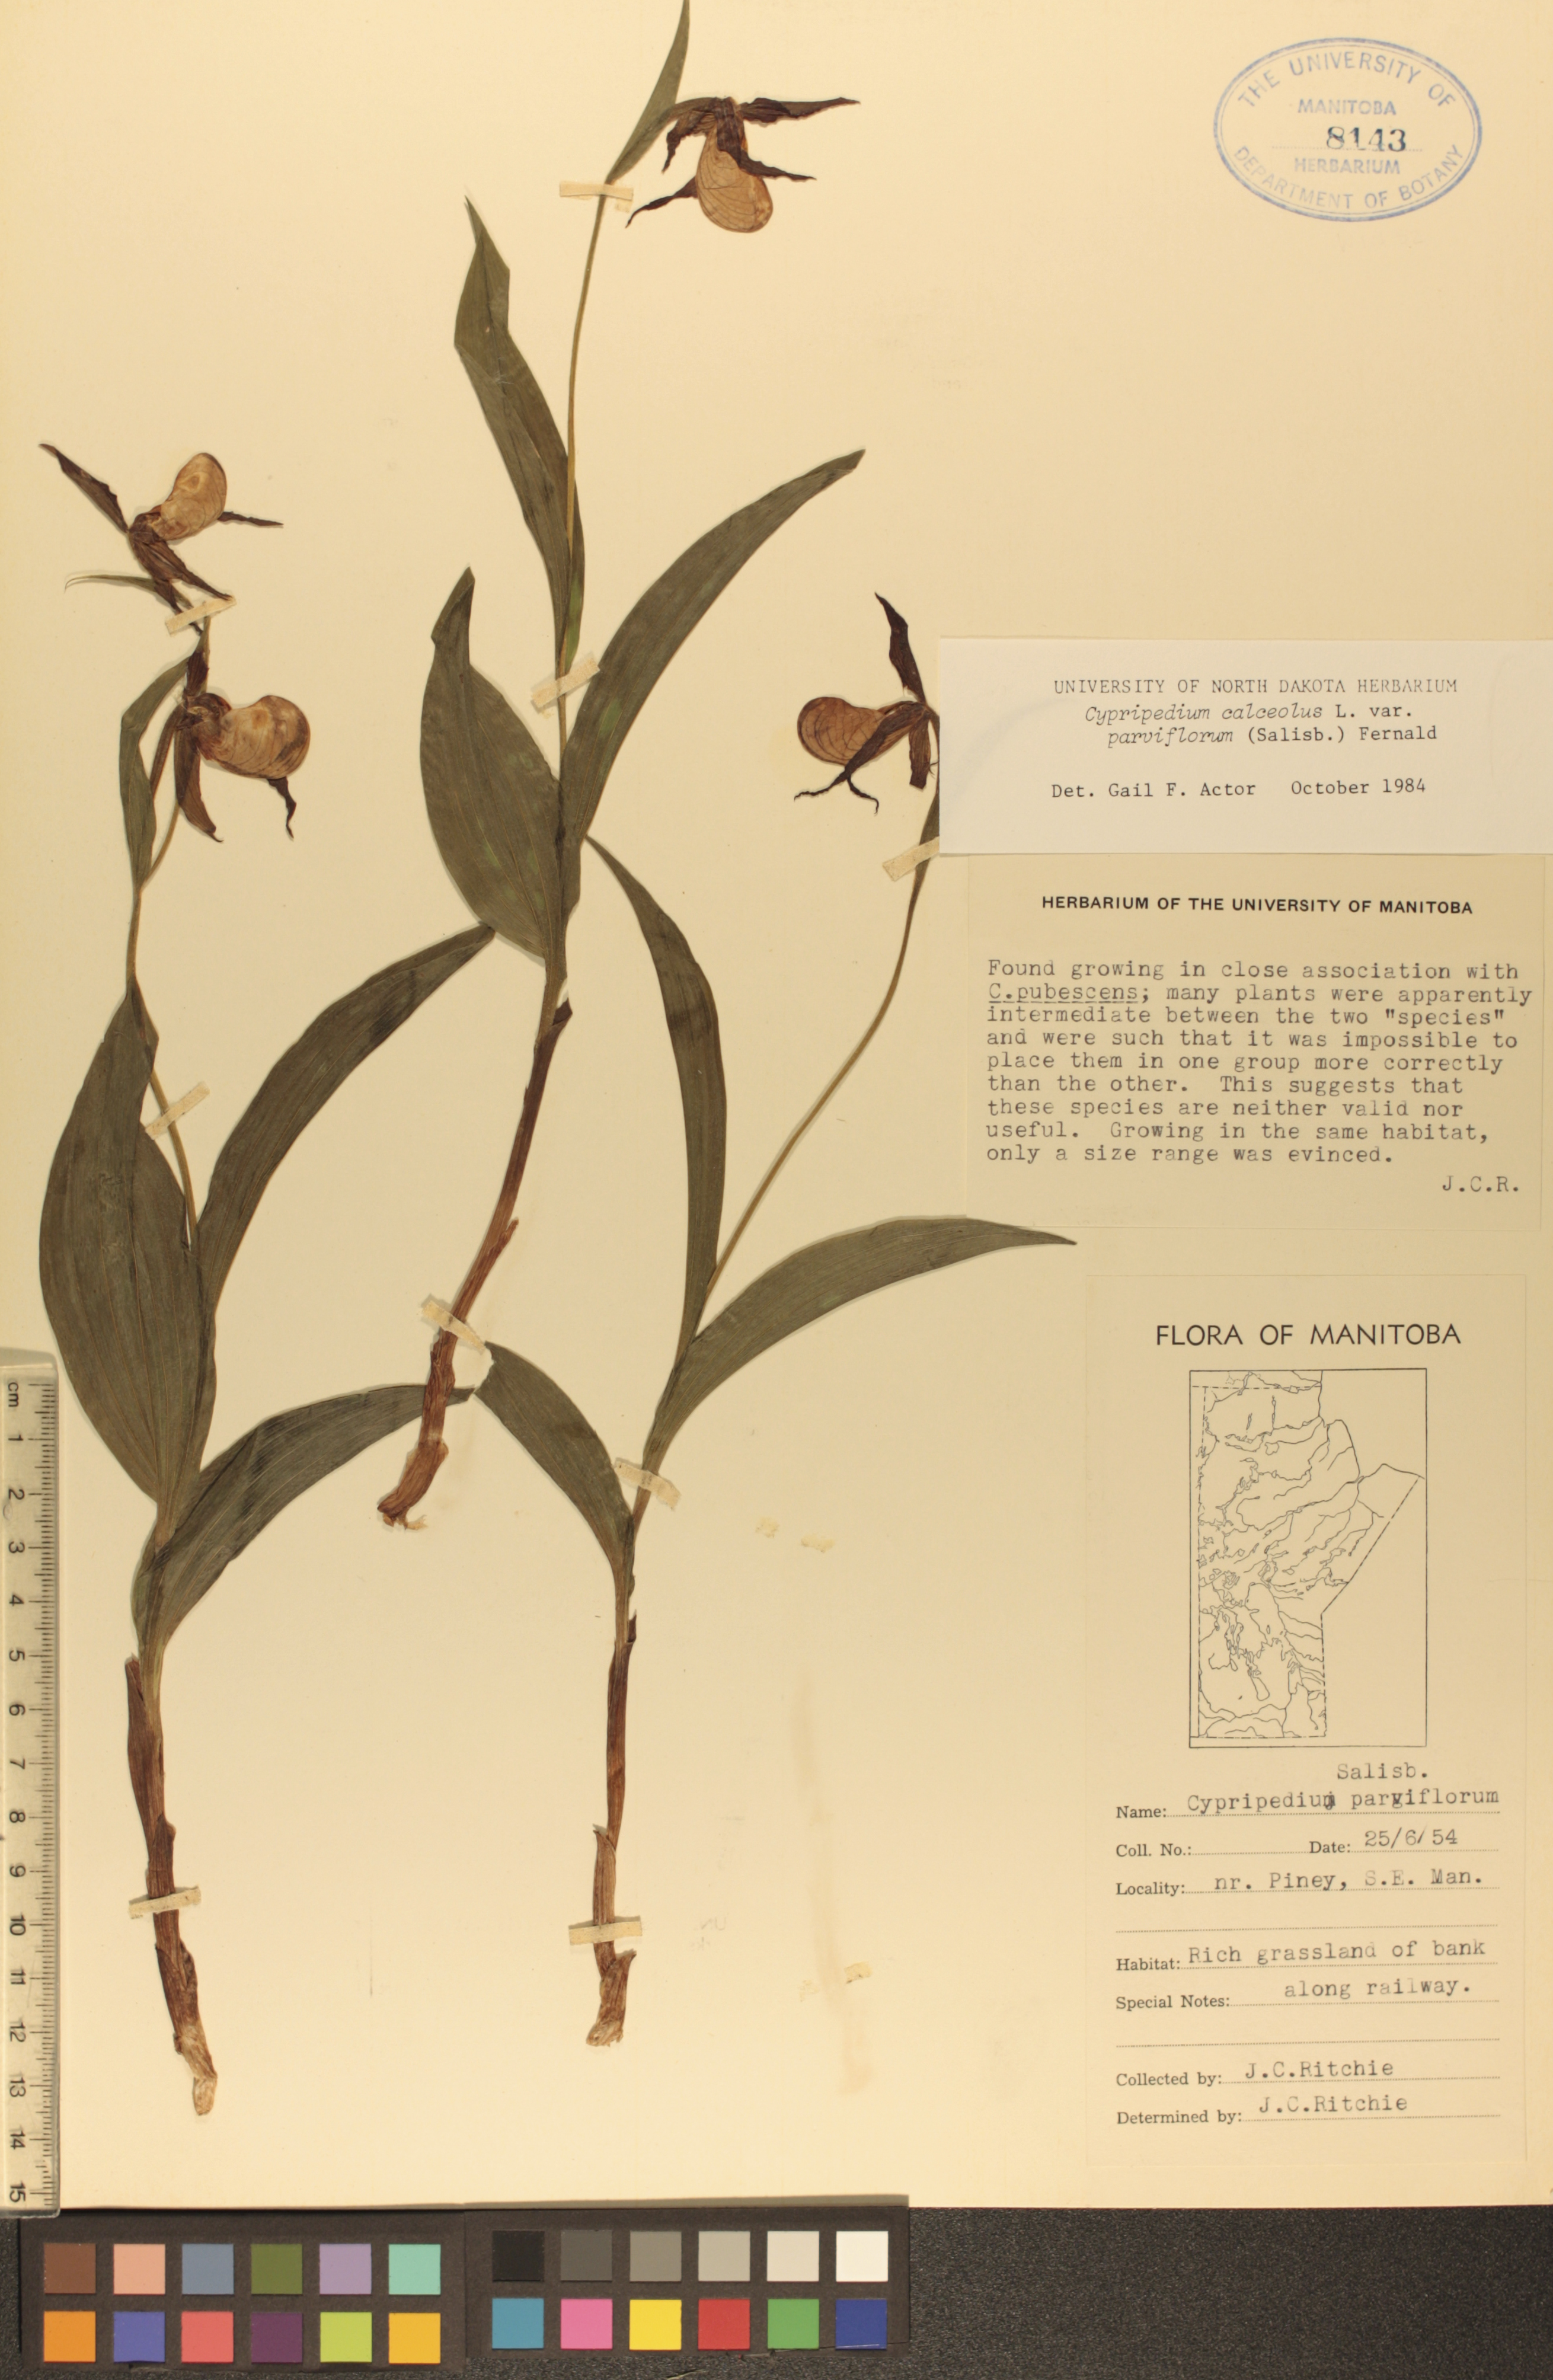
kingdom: Plantae
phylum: Tracheophyta
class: Liliopsida
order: Asparagales
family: Orchidaceae
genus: Cypripedium
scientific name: Cypripedium parviflorum
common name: American yellow lady's-slipper
